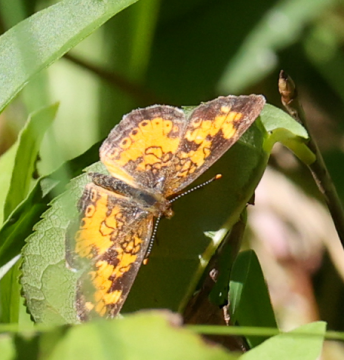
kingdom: Animalia
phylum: Arthropoda
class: Insecta
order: Lepidoptera
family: Nymphalidae
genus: Phyciodes
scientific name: Phyciodes
